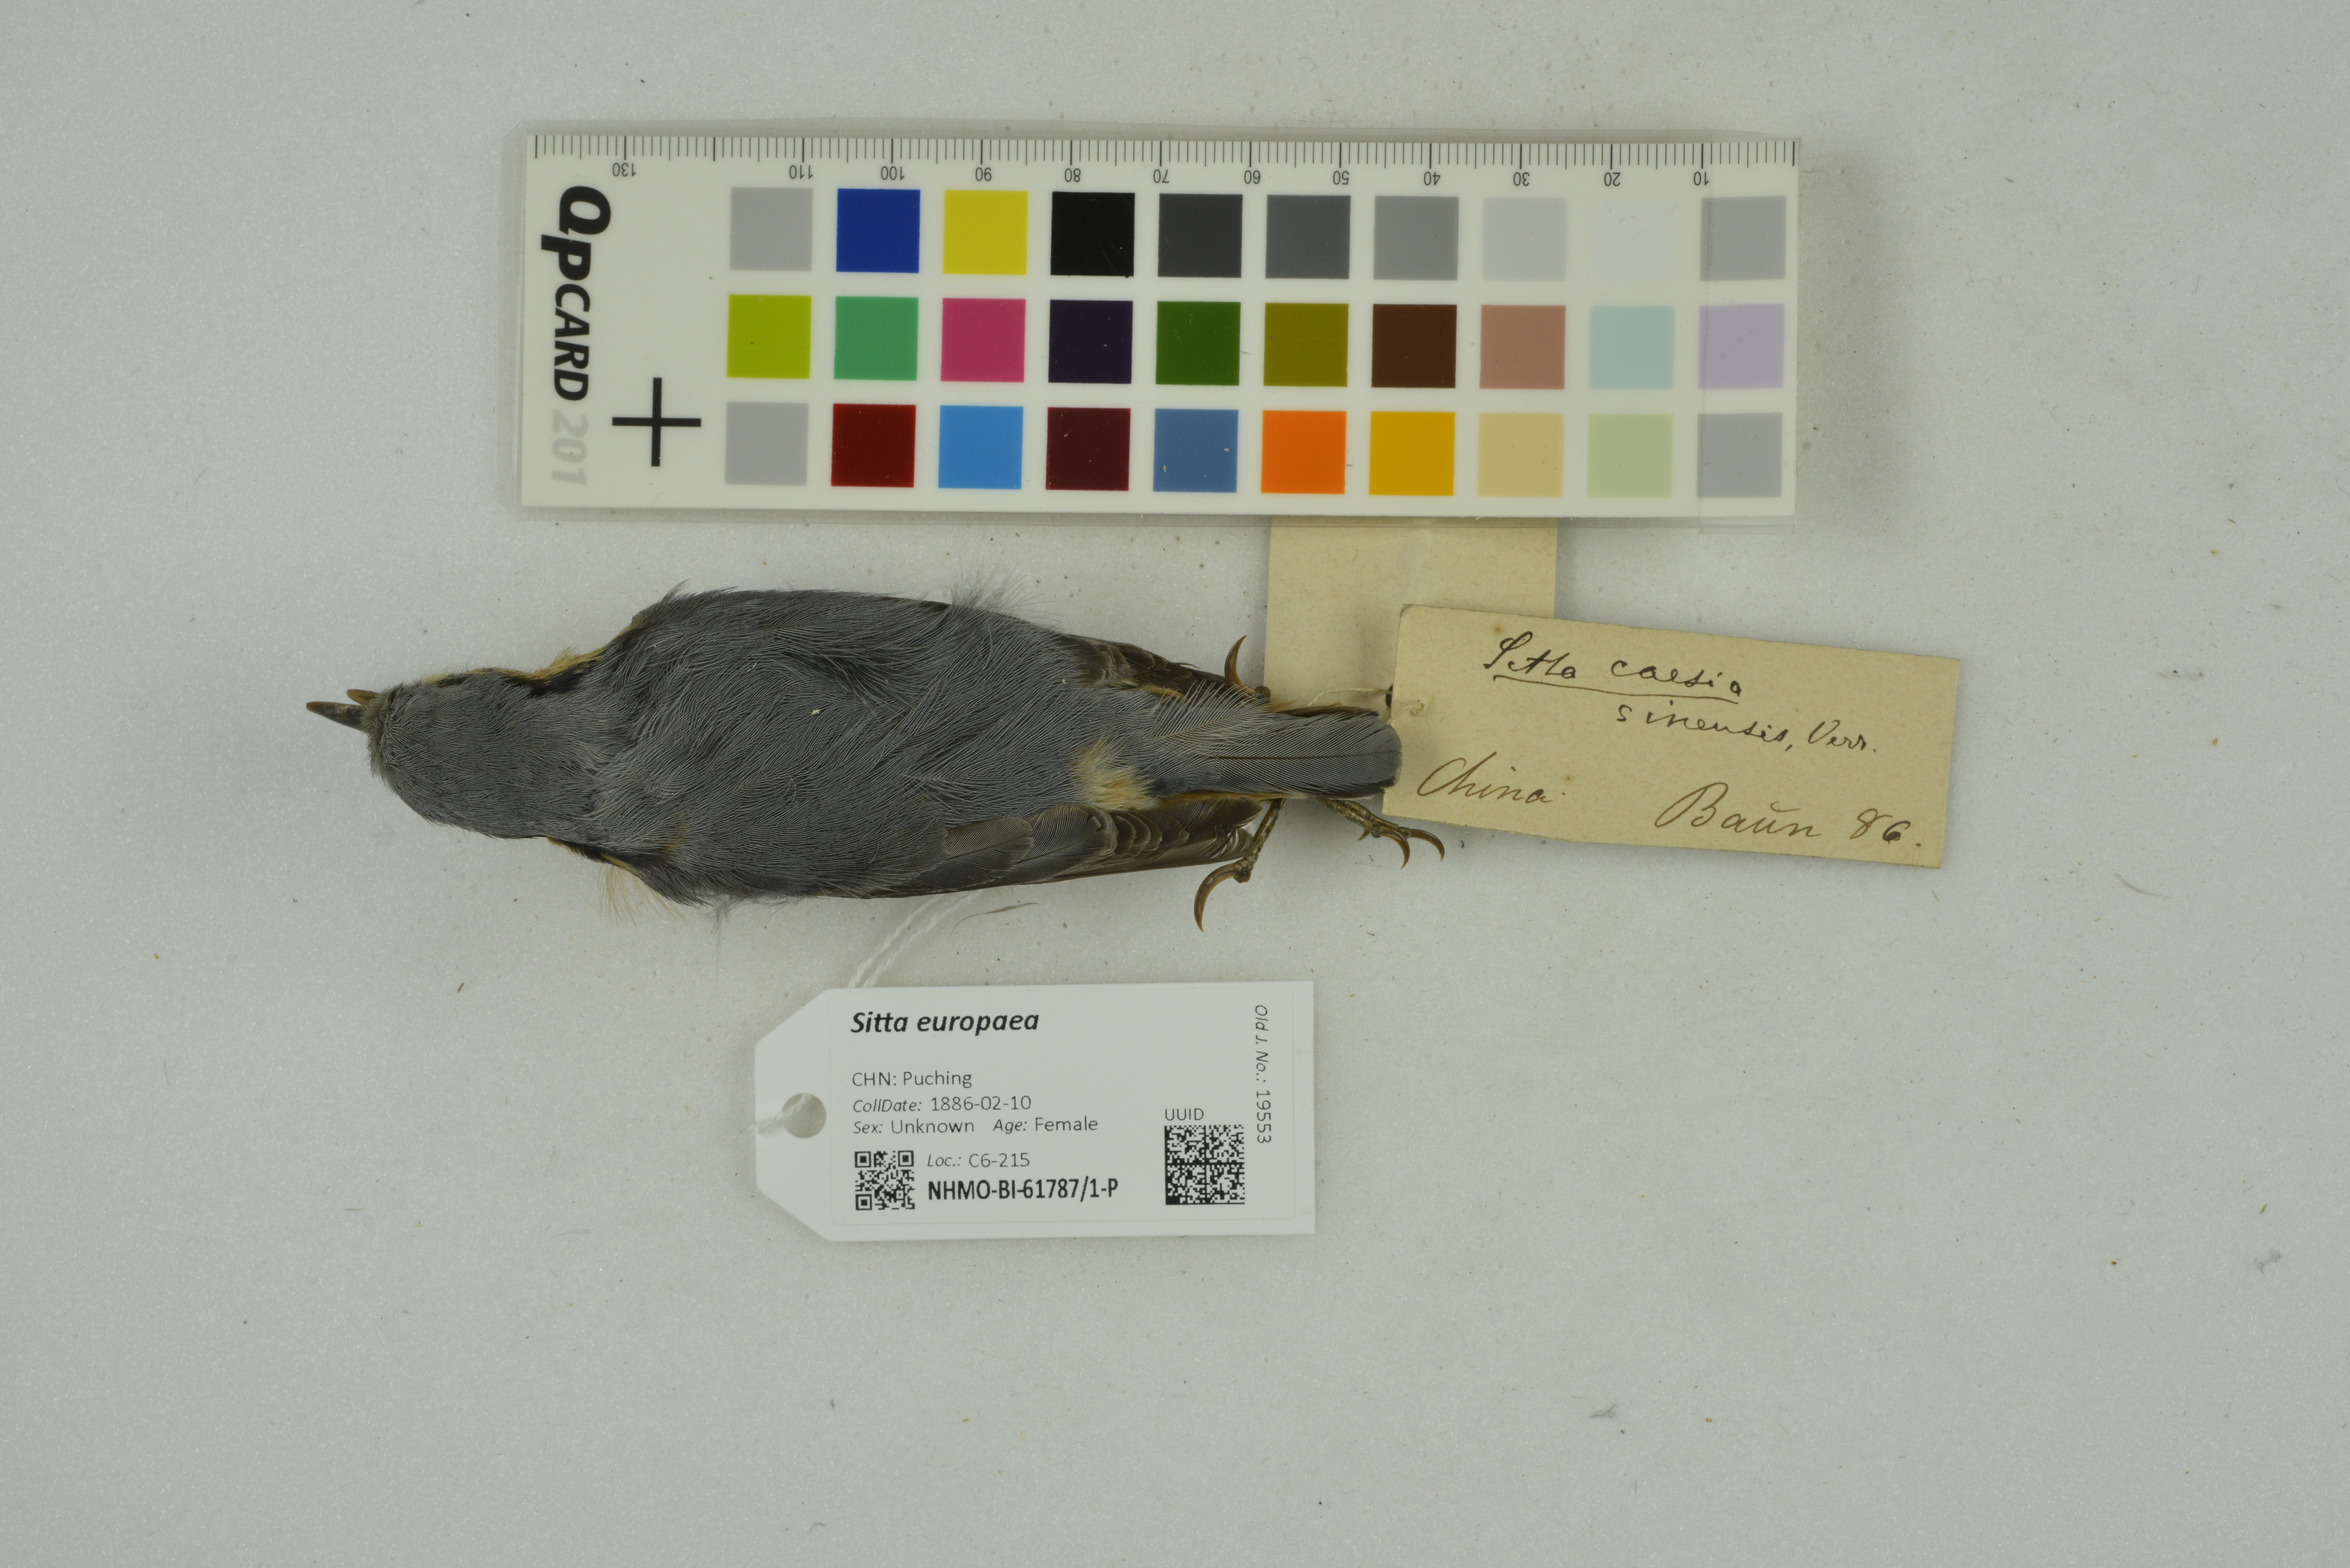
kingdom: Animalia
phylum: Chordata
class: Aves
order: Passeriformes
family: Sittidae
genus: Sitta
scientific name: Sitta europaea
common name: Eurasian nuthatch
